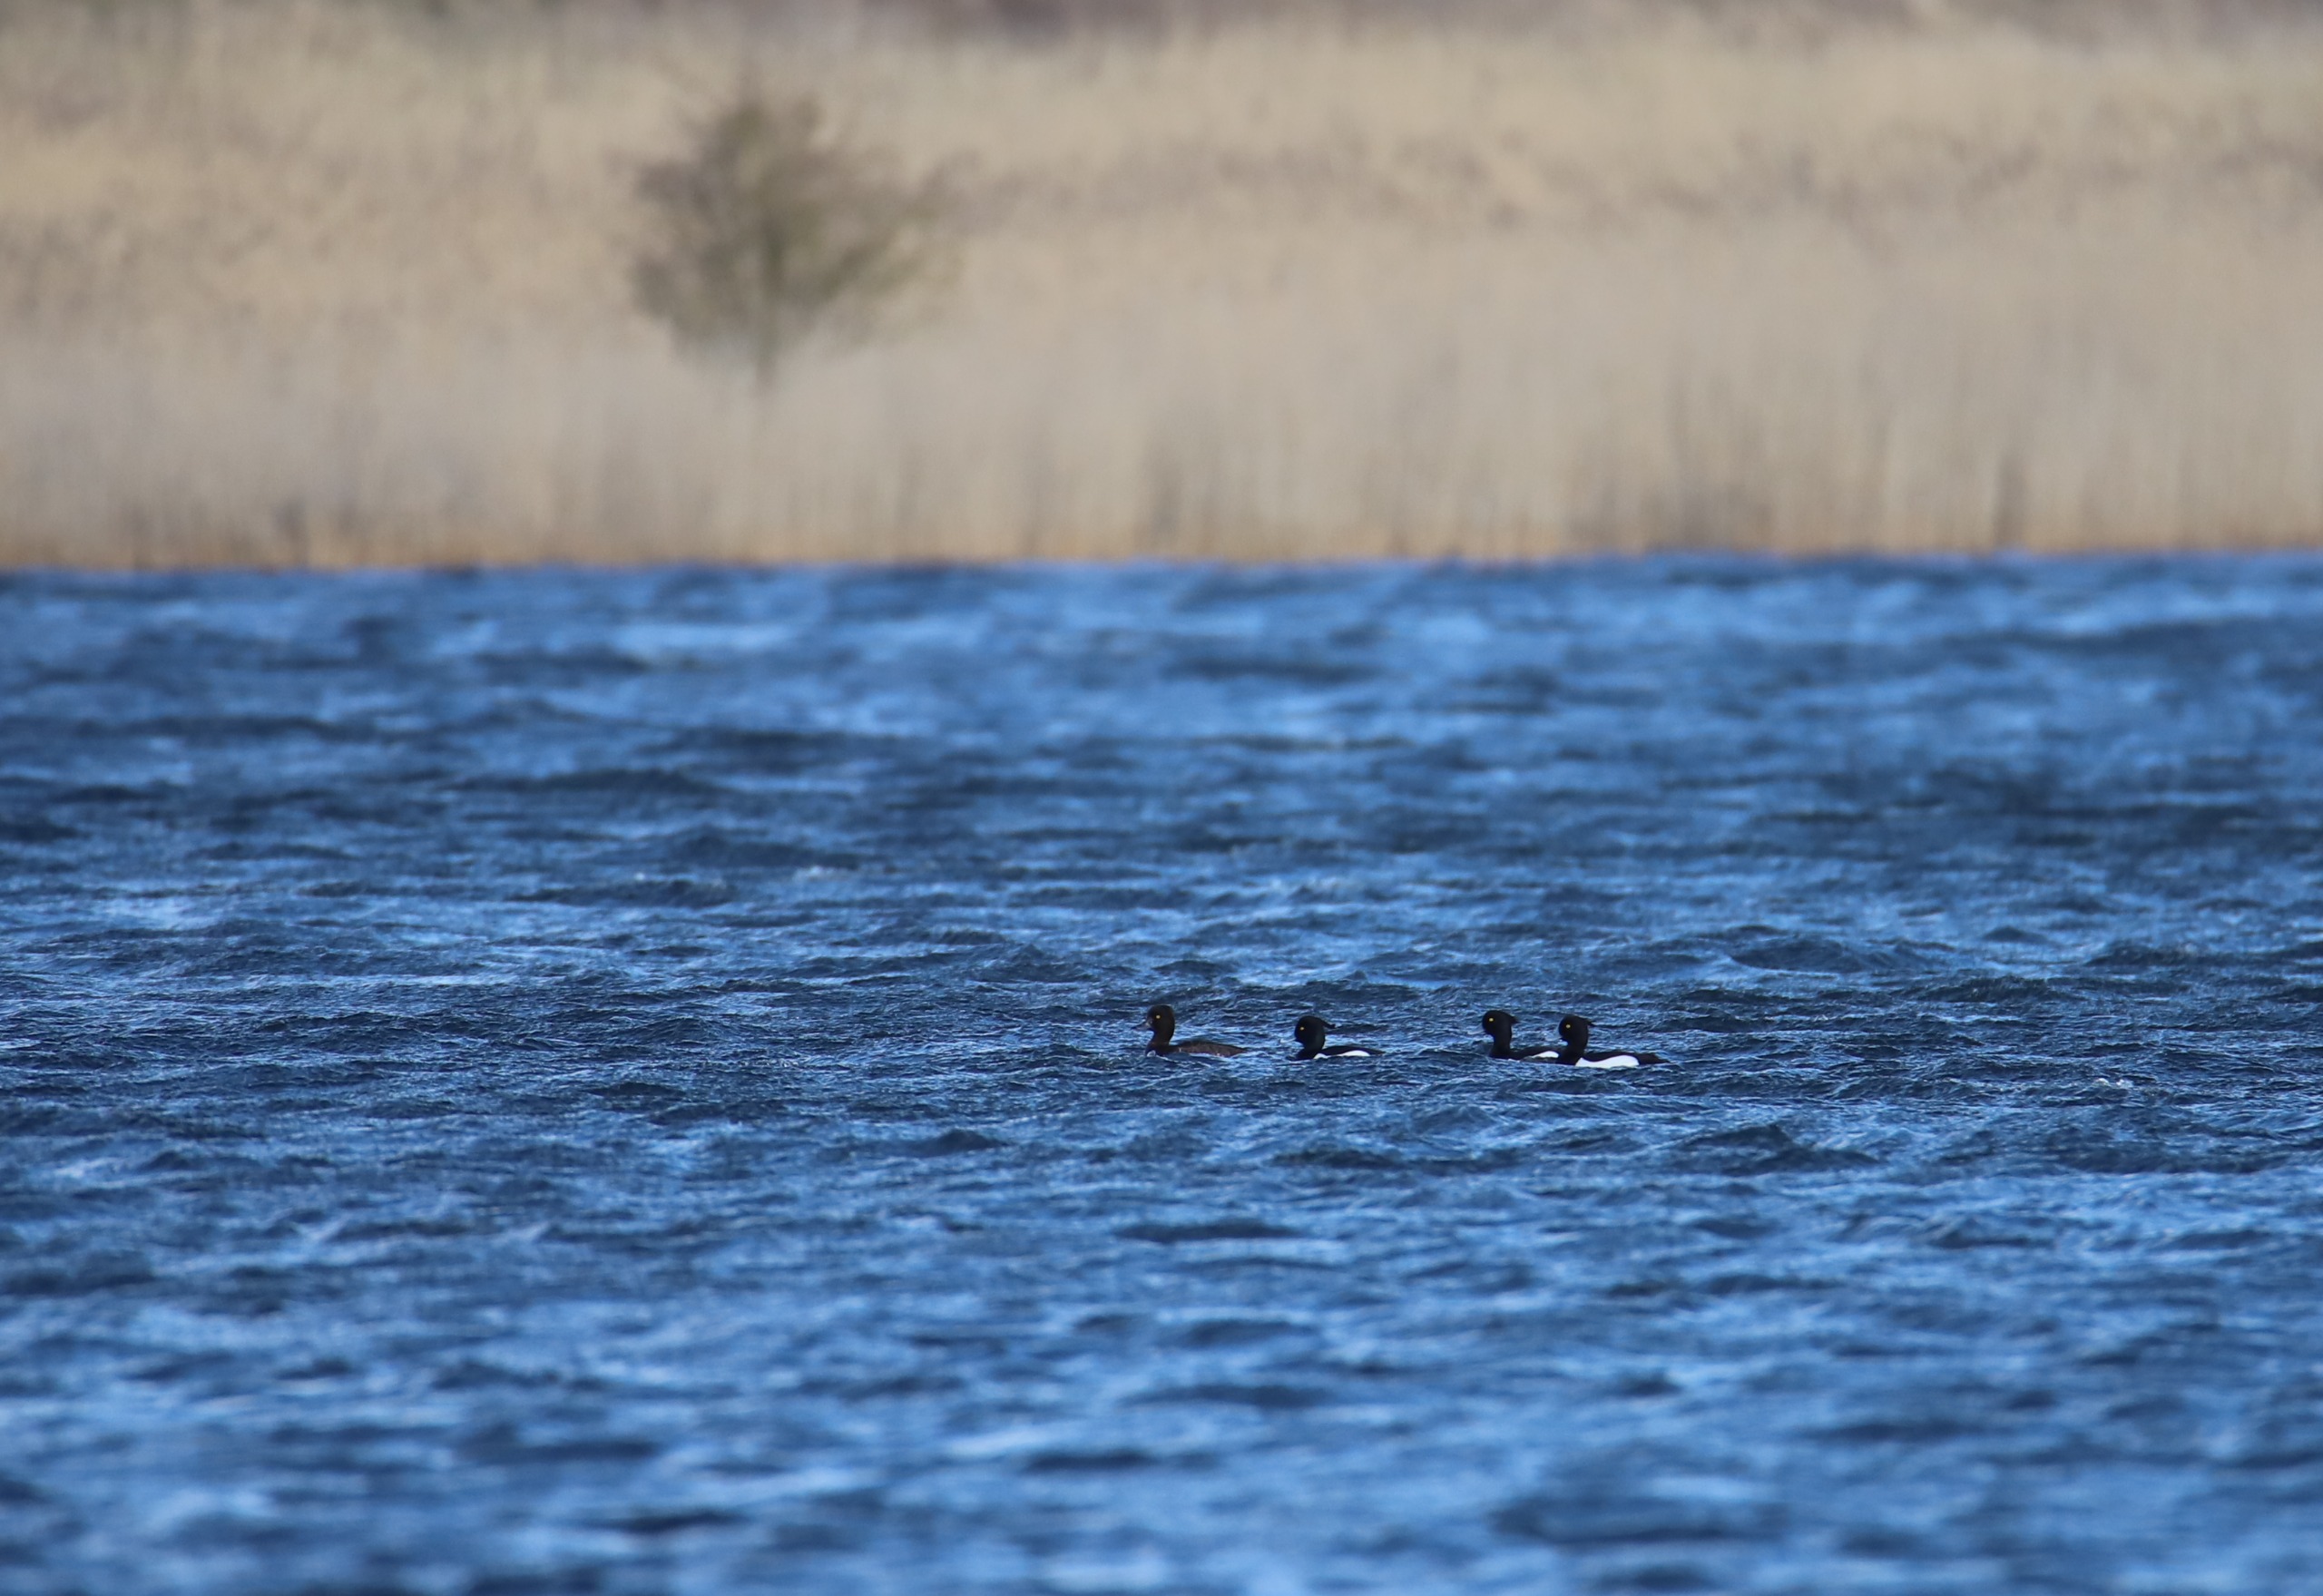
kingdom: Animalia
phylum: Chordata
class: Aves
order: Anseriformes
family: Anatidae
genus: Aythya
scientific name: Aythya fuligula
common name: Troldand
